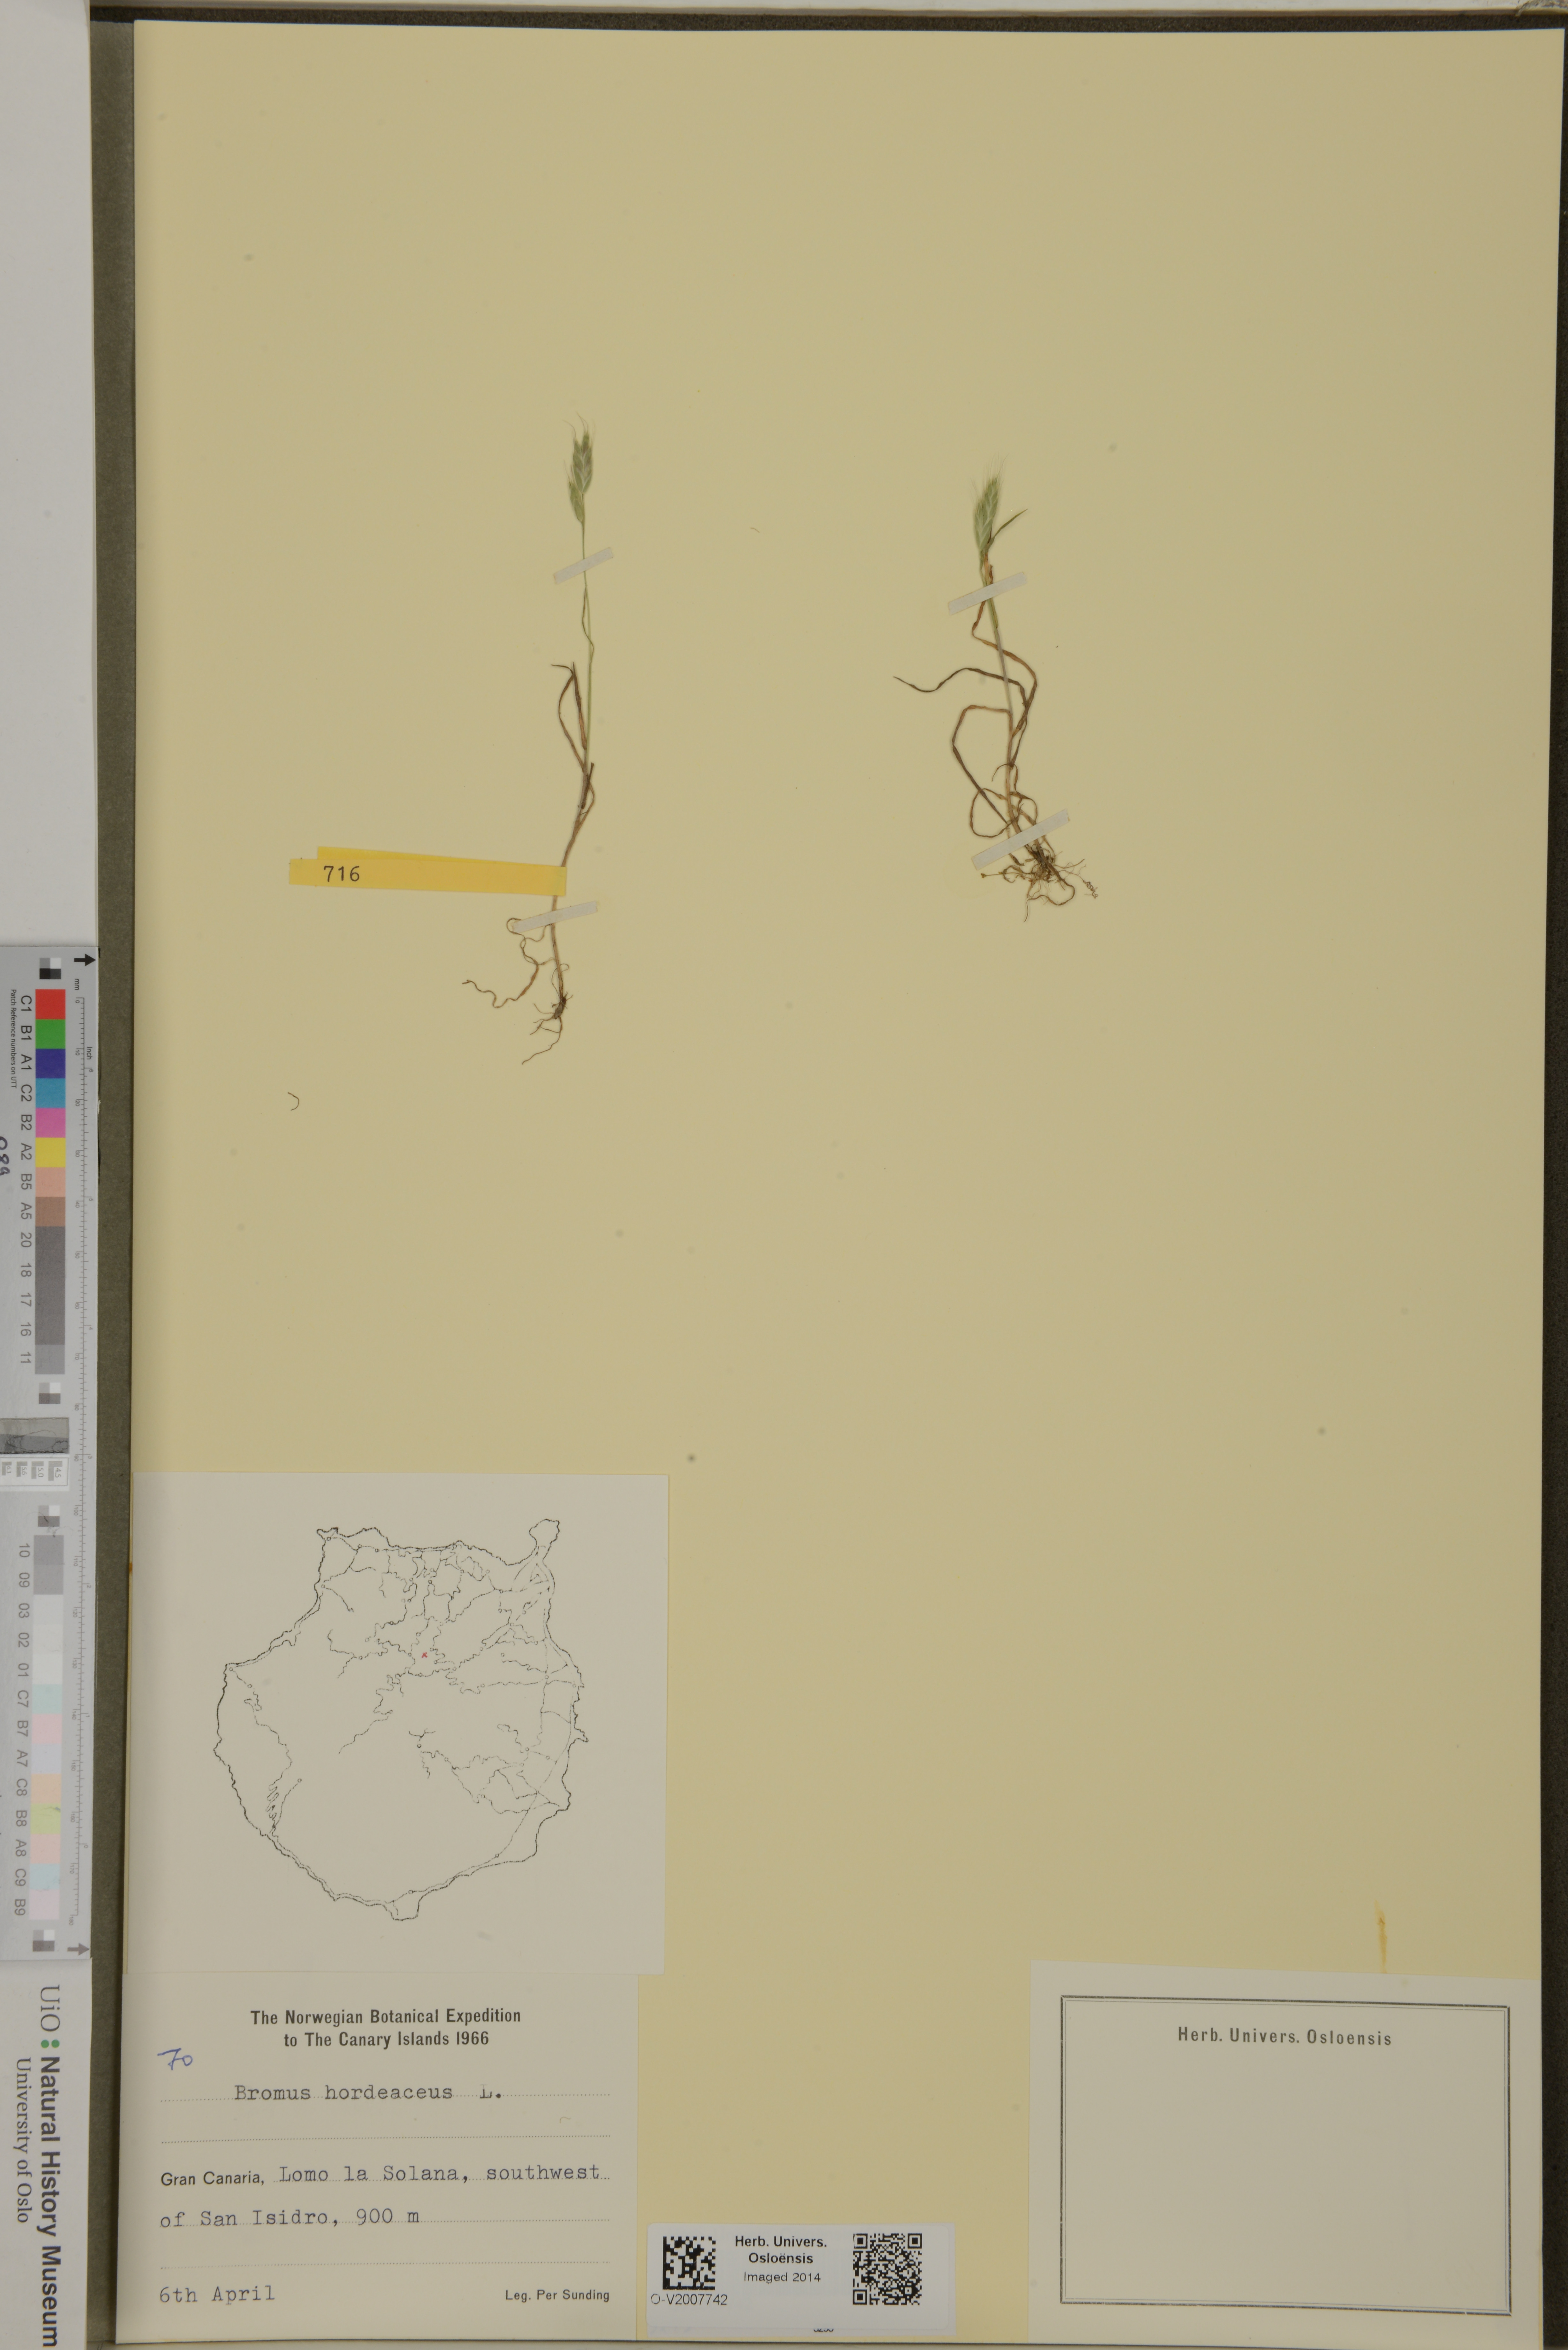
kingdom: Plantae
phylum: Tracheophyta
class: Liliopsida
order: Poales
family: Poaceae
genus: Bromus
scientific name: Bromus hordeaceus
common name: Soft brome
